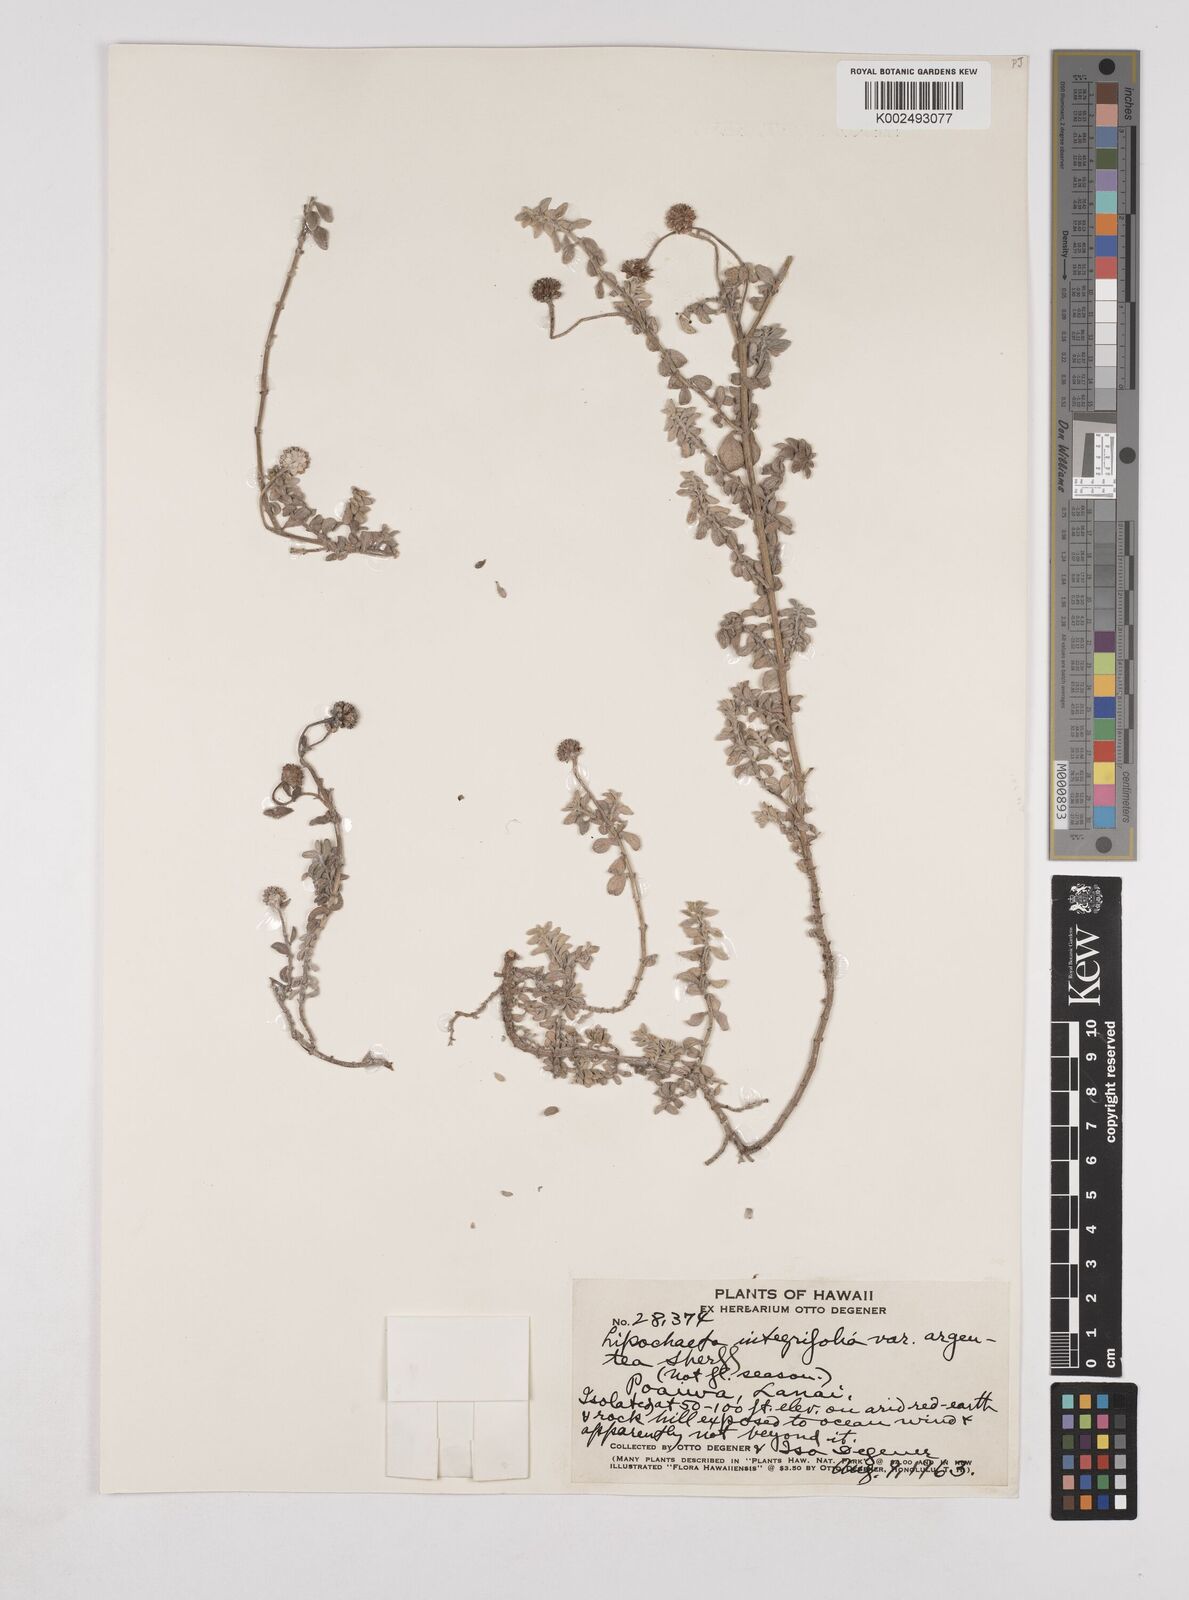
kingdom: Plantae
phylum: Tracheophyta
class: Magnoliopsida
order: Asterales
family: Asteraceae
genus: Lipochaeta
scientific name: Lipochaeta integrifolia
